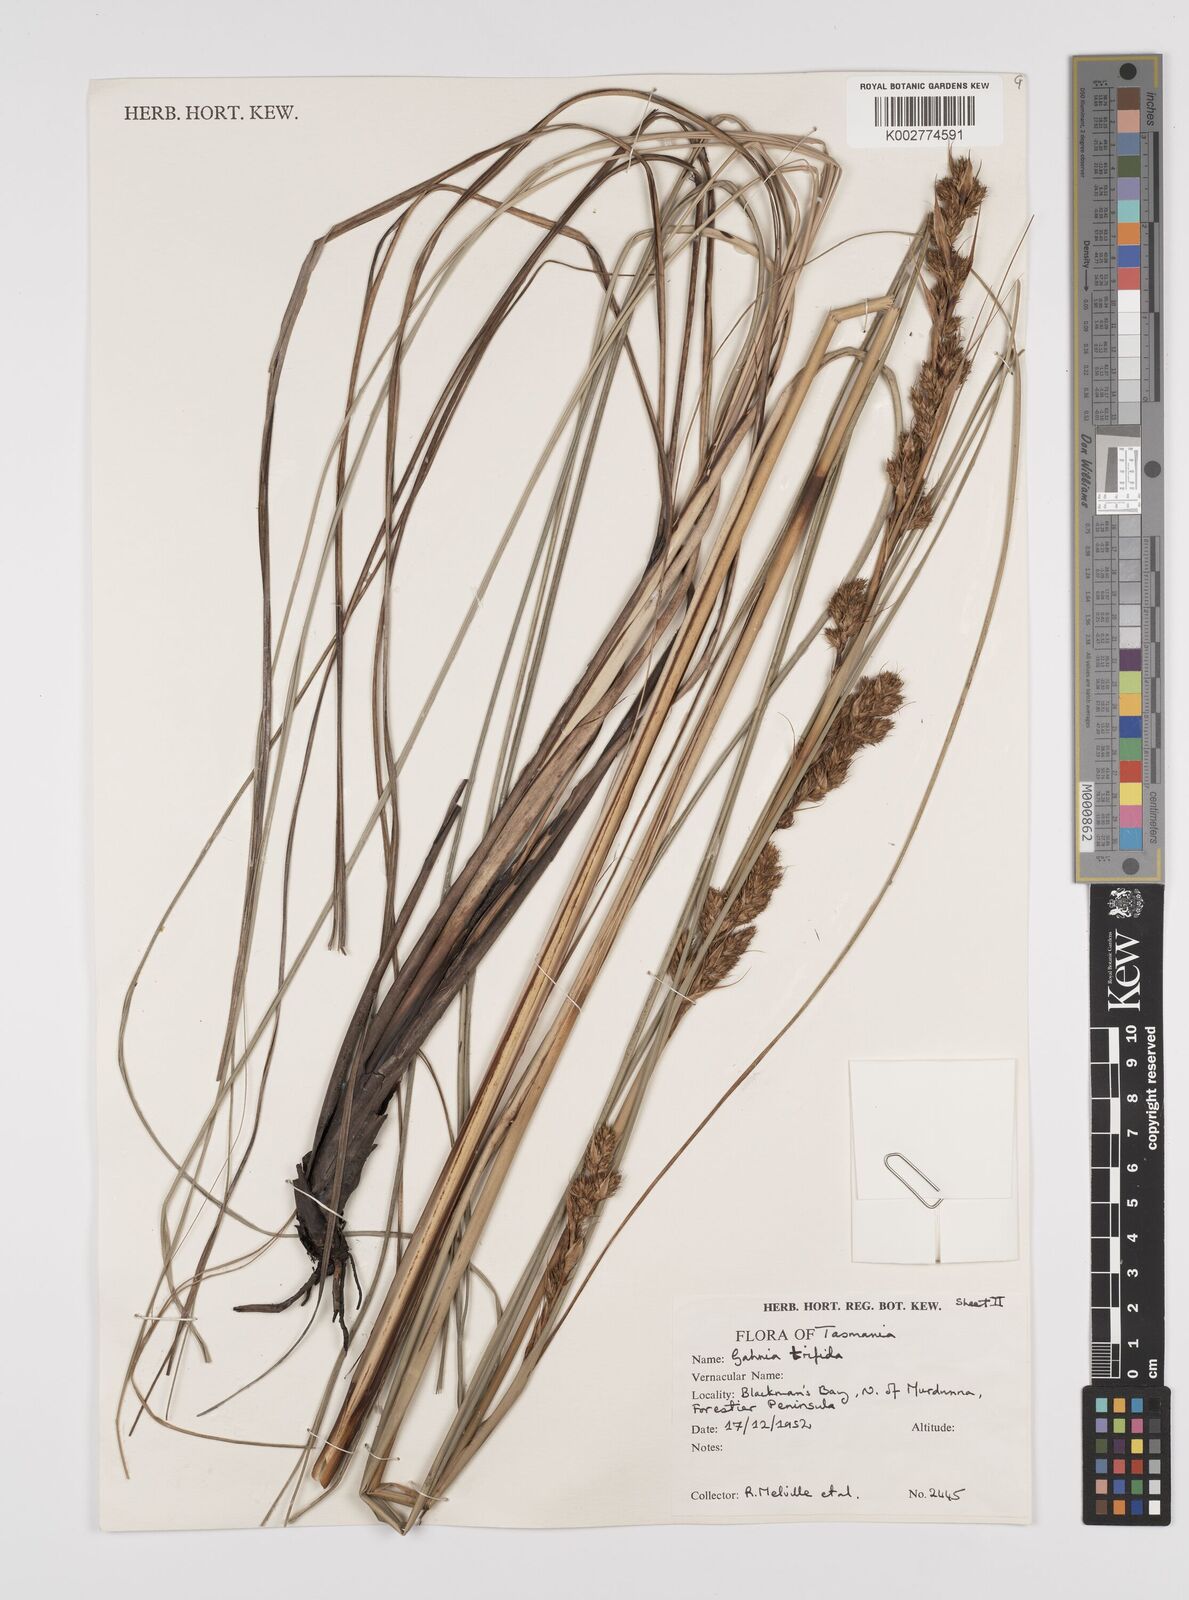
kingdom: Plantae
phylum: Tracheophyta
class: Liliopsida
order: Poales
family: Cyperaceae
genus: Gahnia
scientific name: Gahnia trifida
